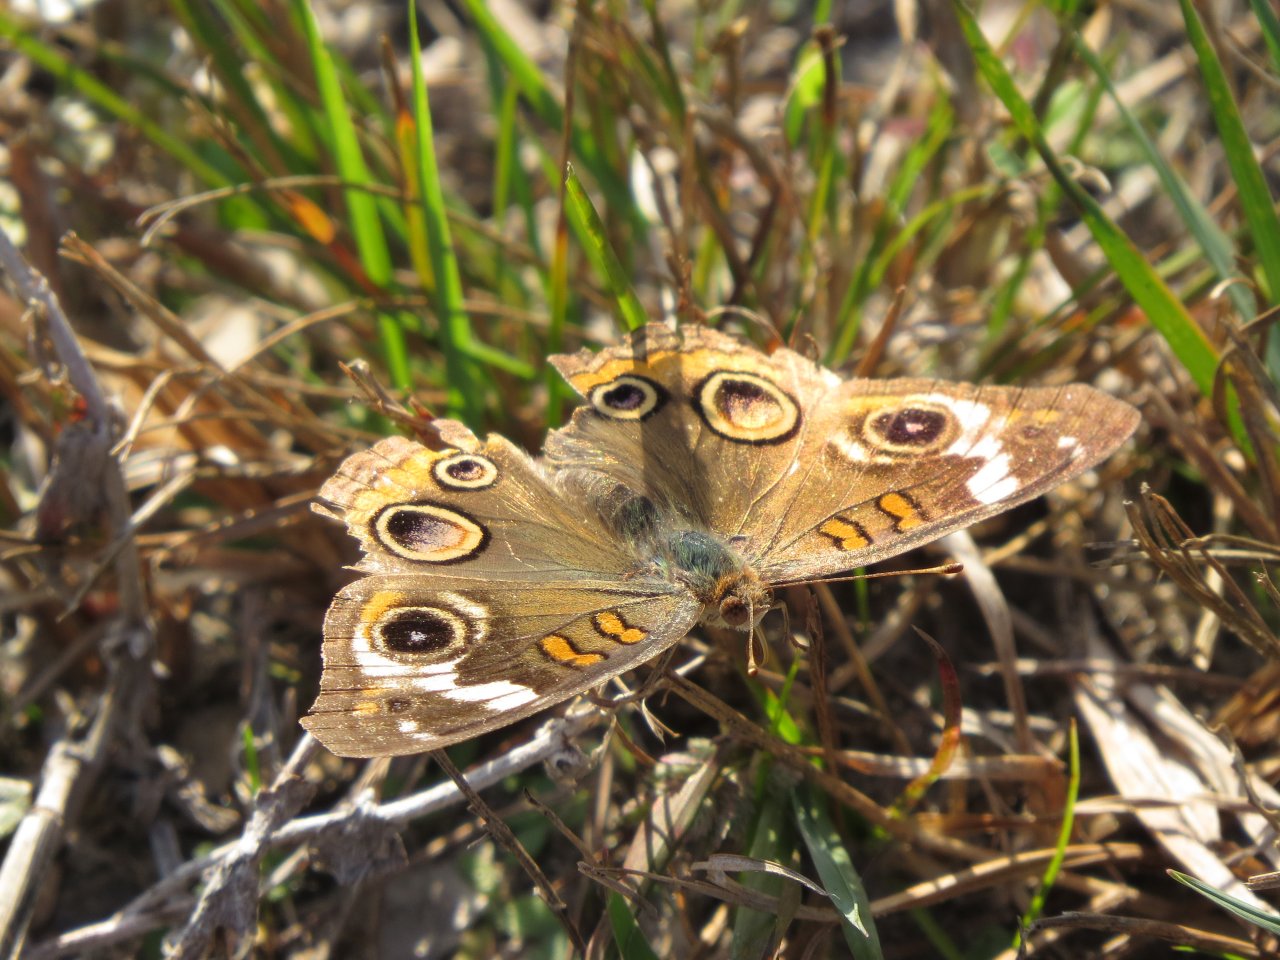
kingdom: Animalia
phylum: Arthropoda
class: Insecta
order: Lepidoptera
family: Nymphalidae
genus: Junonia
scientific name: Junonia coenia
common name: Common Buckeye
